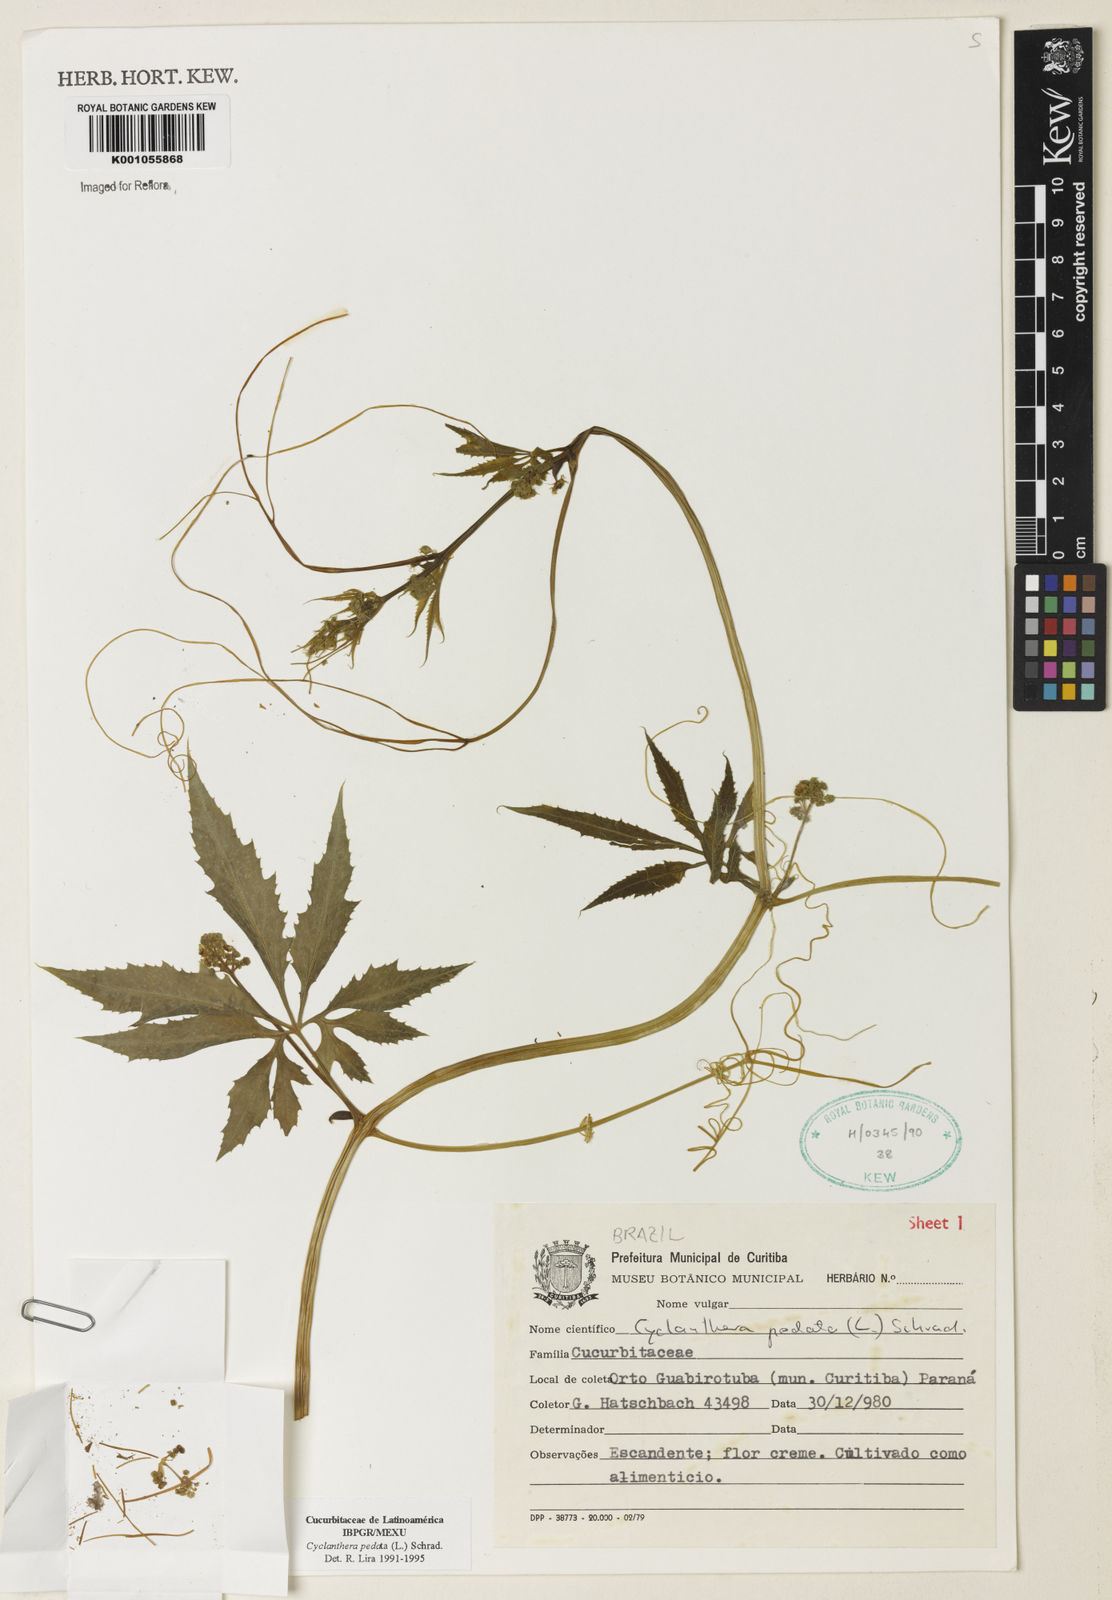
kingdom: Plantae
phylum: Tracheophyta
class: Magnoliopsida
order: Cucurbitales
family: Cucurbitaceae
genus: Cyclanthera
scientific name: Cyclanthera pedata
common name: Slipper goard
